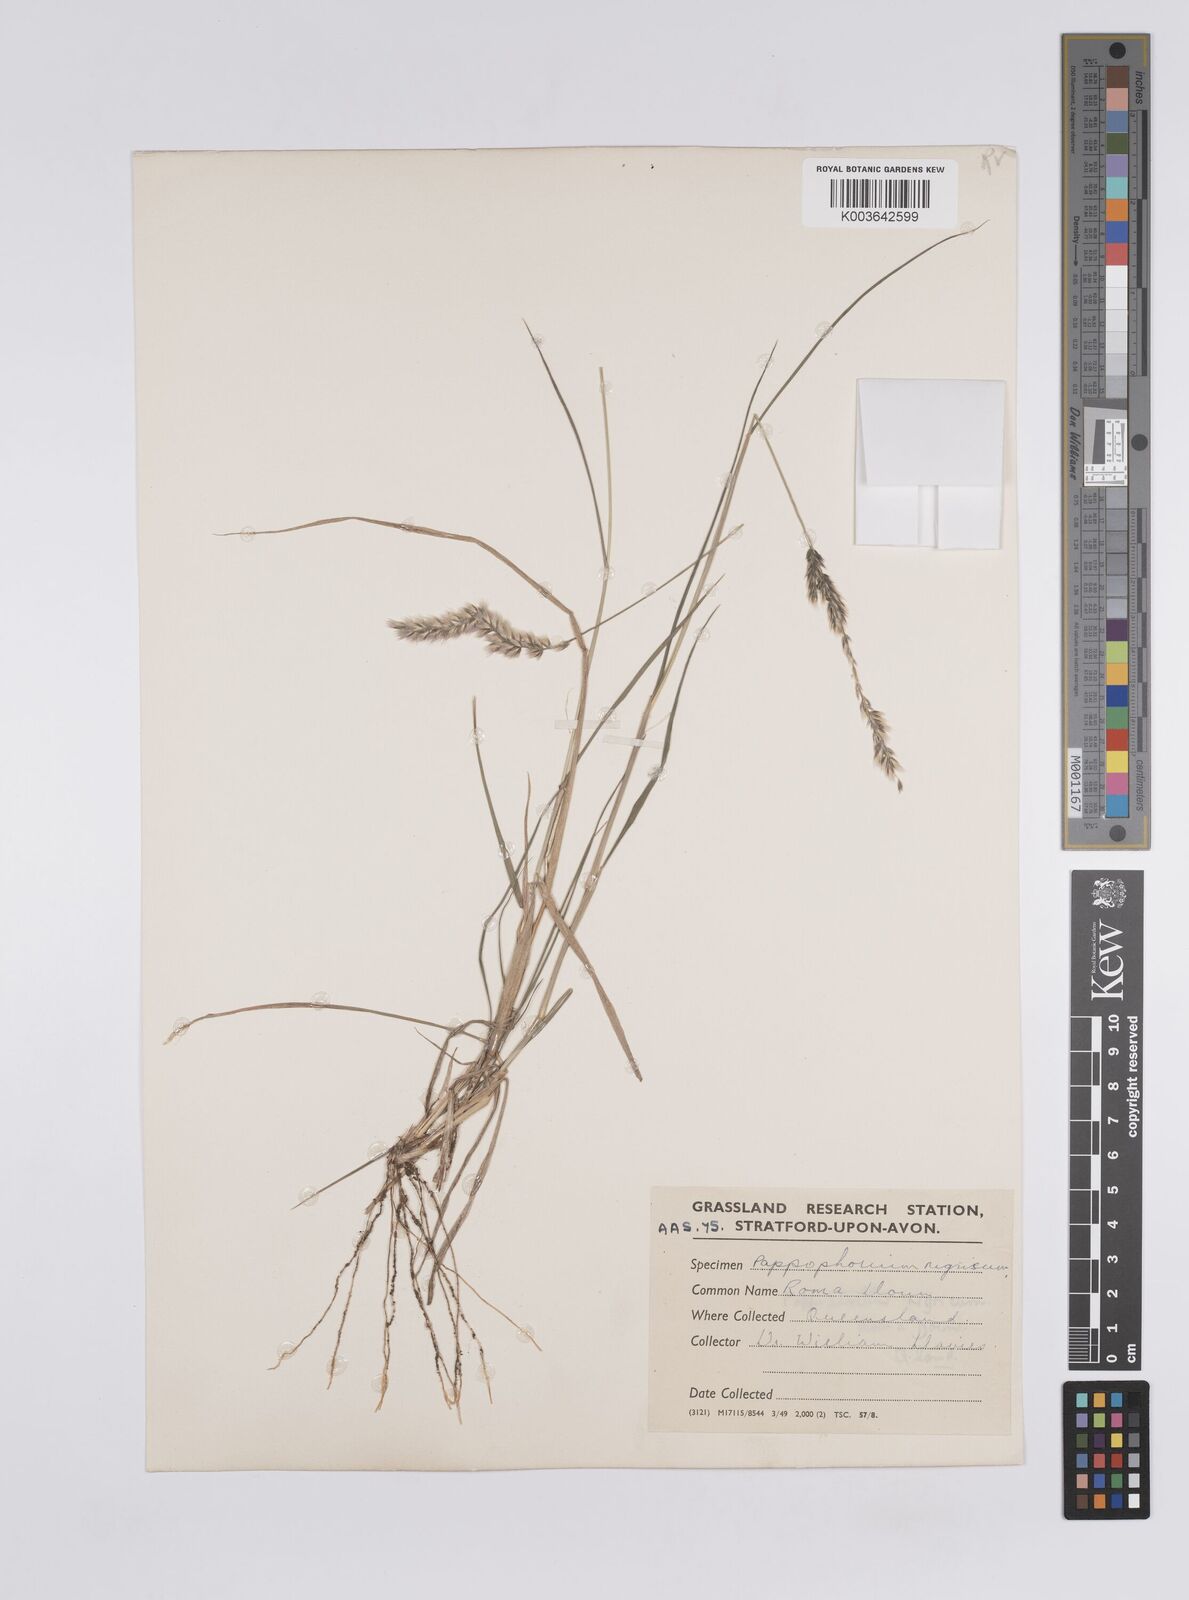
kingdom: Plantae
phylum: Tracheophyta
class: Liliopsida
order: Poales
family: Poaceae
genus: Enneapogon
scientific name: Enneapogon truncatus
